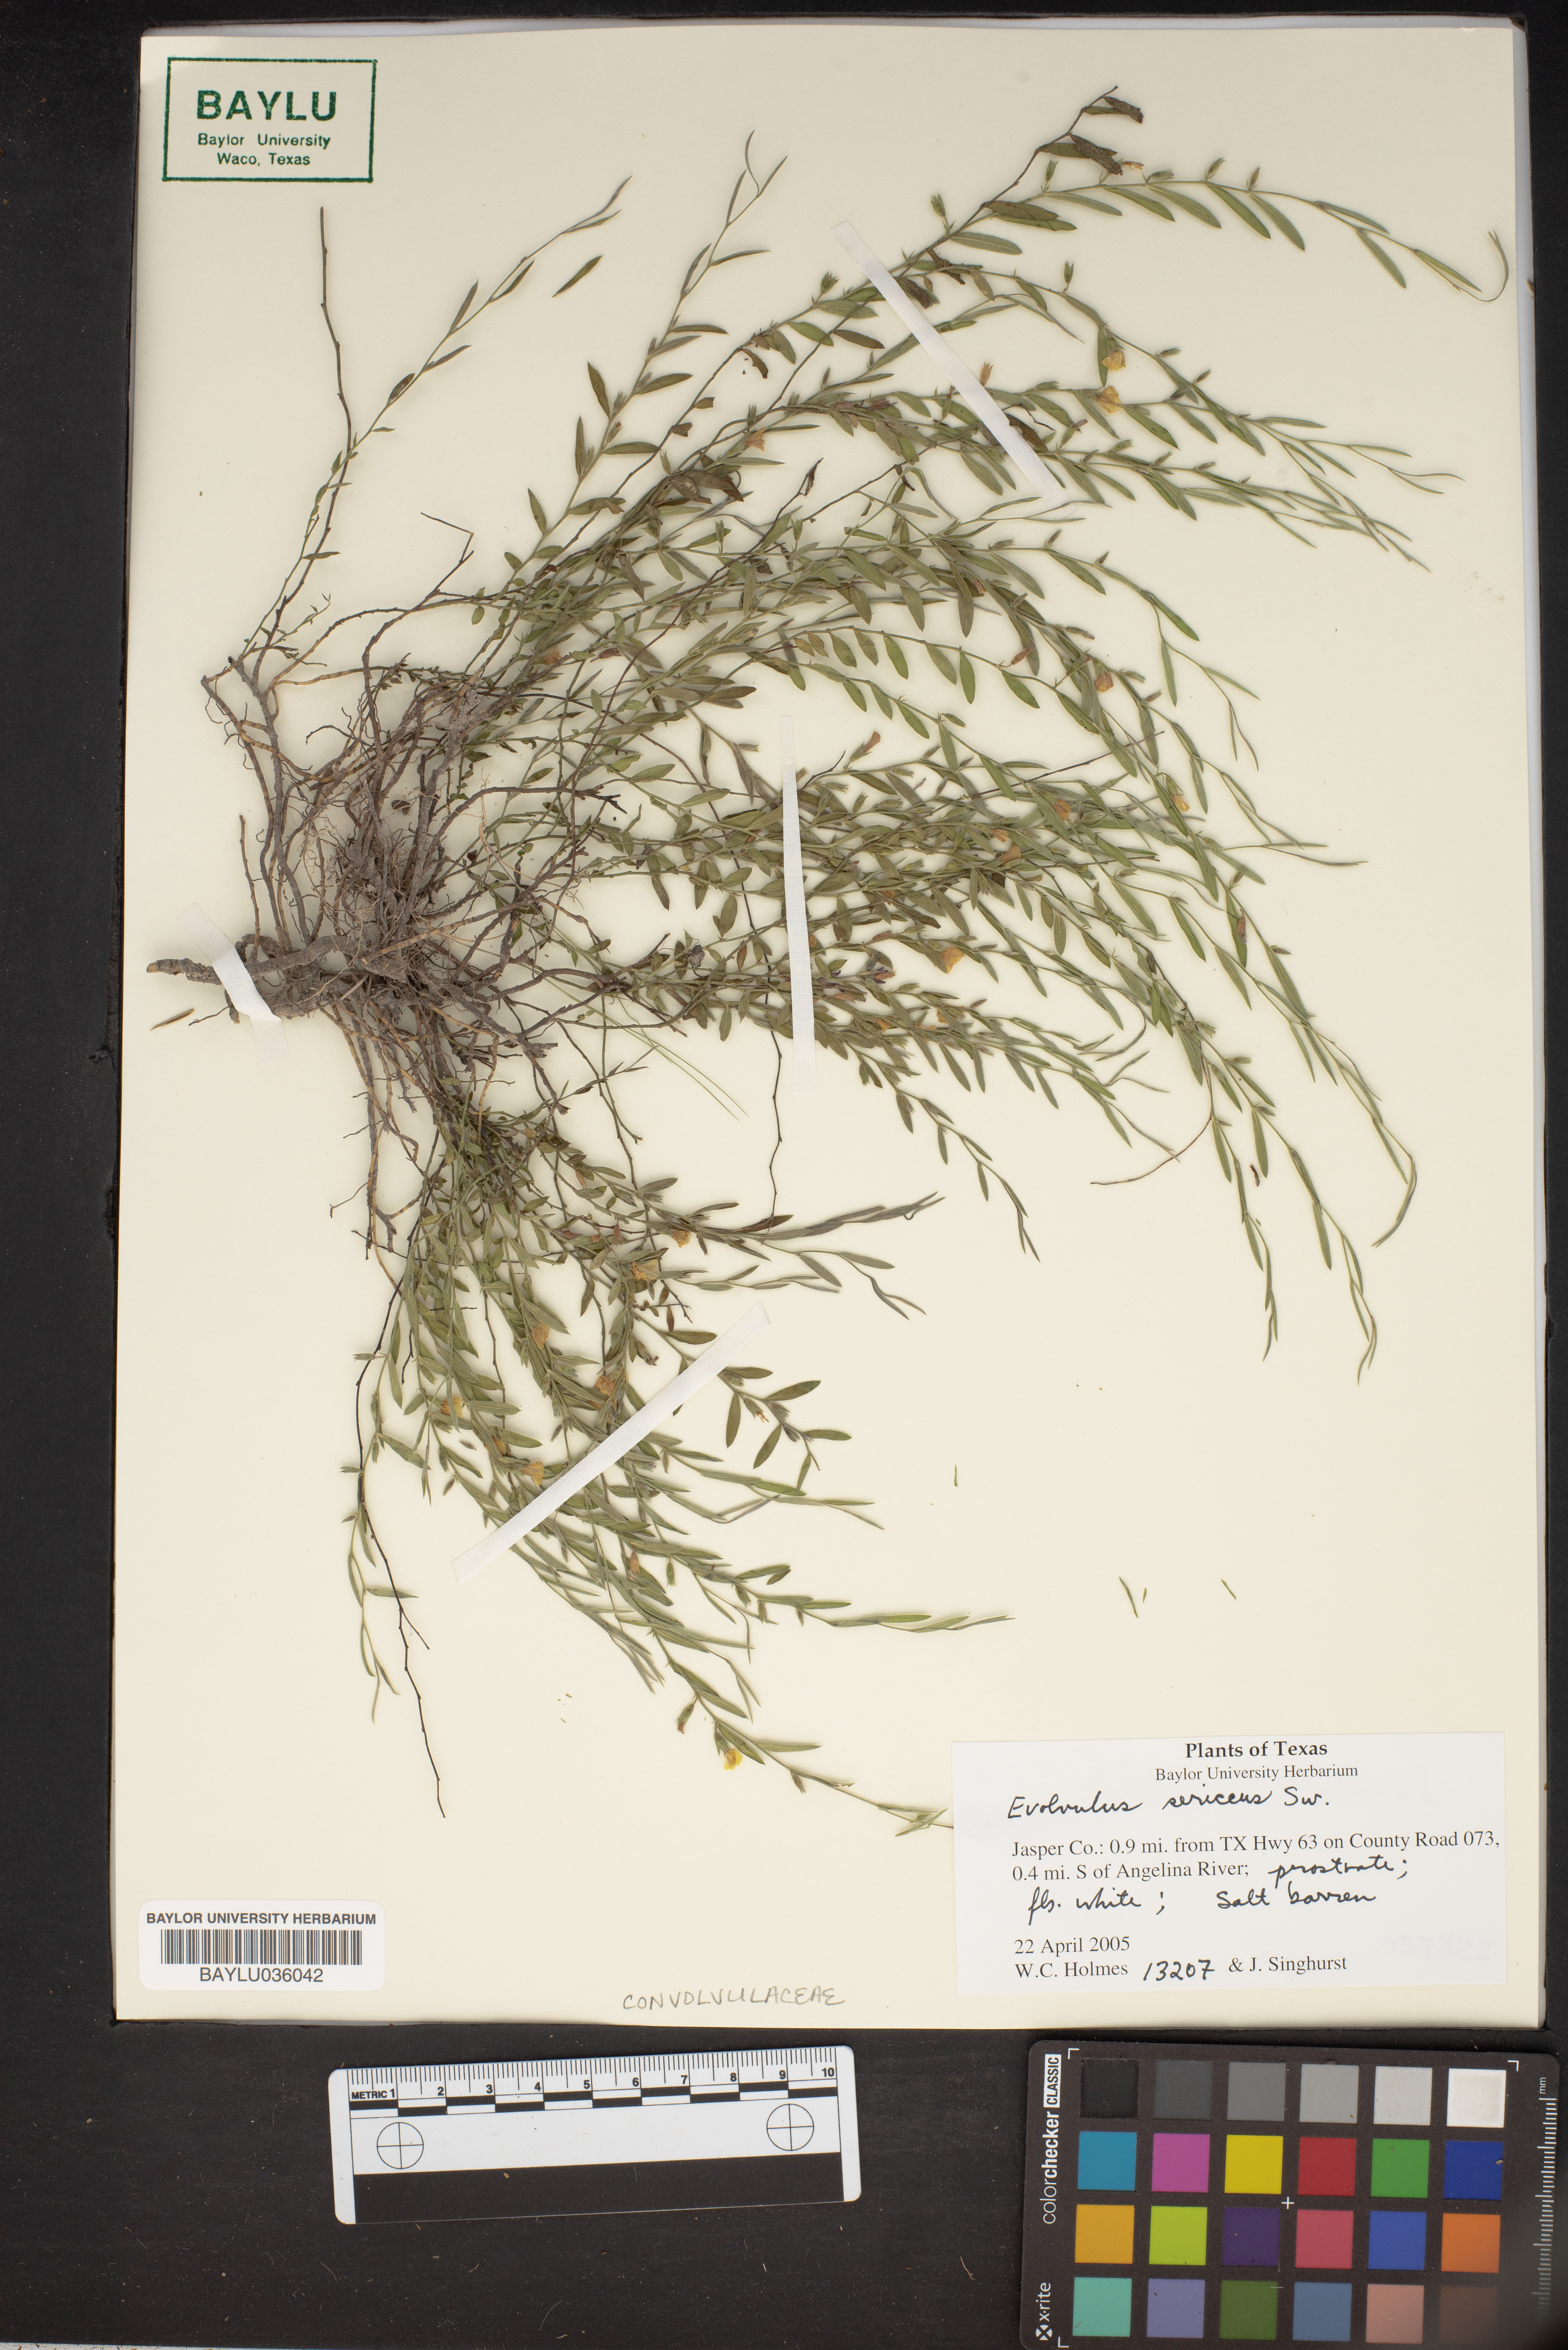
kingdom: Plantae
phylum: Tracheophyta
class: Magnoliopsida
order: Solanales
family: Convolvulaceae
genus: Evolvulus
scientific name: Evolvulus sericeus
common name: Blue dots
